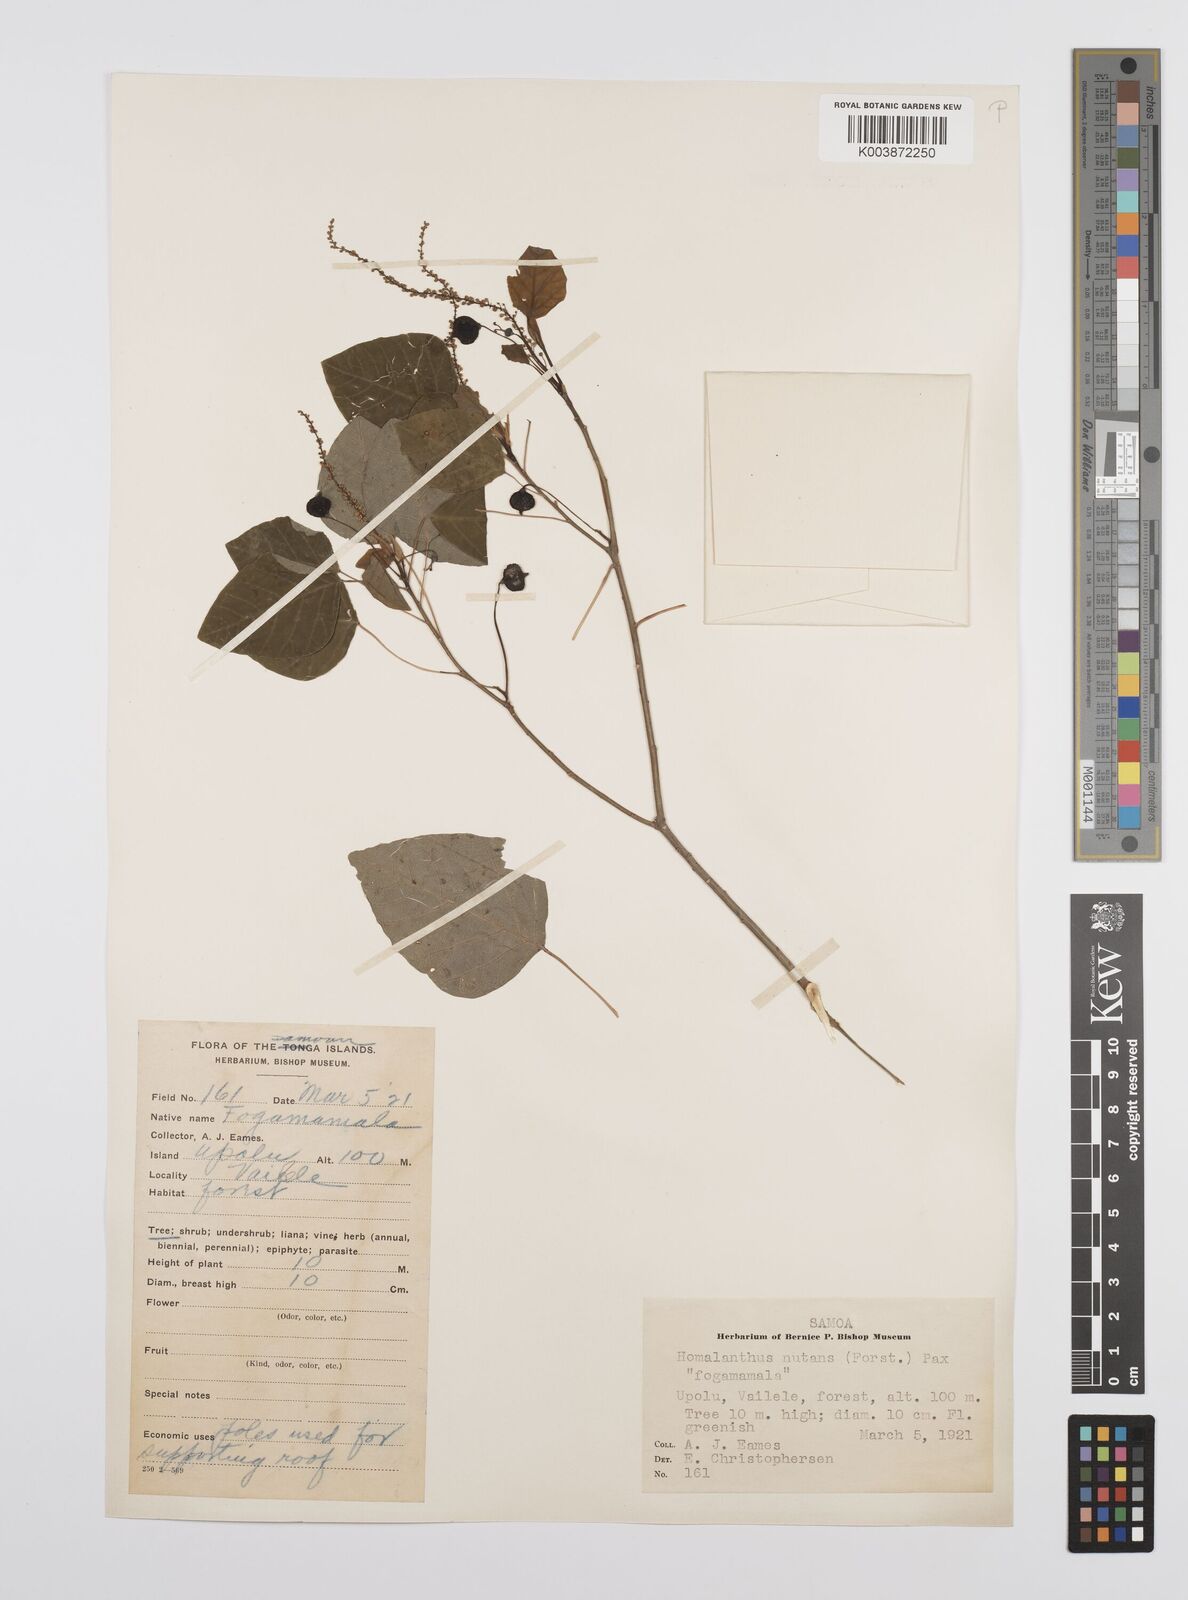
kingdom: Plantae
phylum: Tracheophyta
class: Magnoliopsida
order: Malpighiales
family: Euphorbiaceae
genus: Homalanthus
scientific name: Homalanthus nutans
